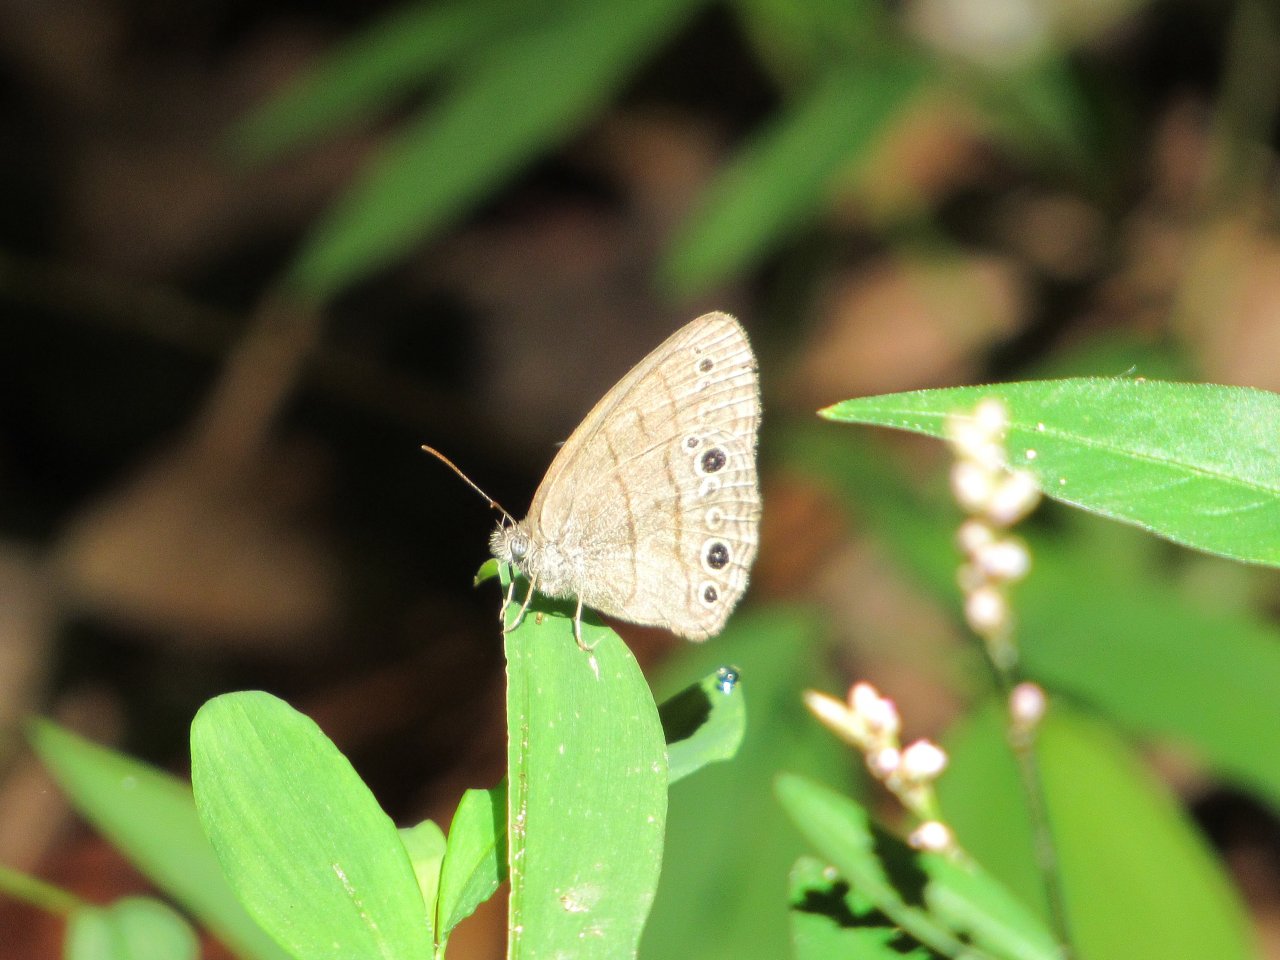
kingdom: Animalia
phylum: Arthropoda
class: Insecta
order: Lepidoptera
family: Nymphalidae
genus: Hermeuptychia
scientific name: Hermeuptychia hermes
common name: Carolina Satyr
